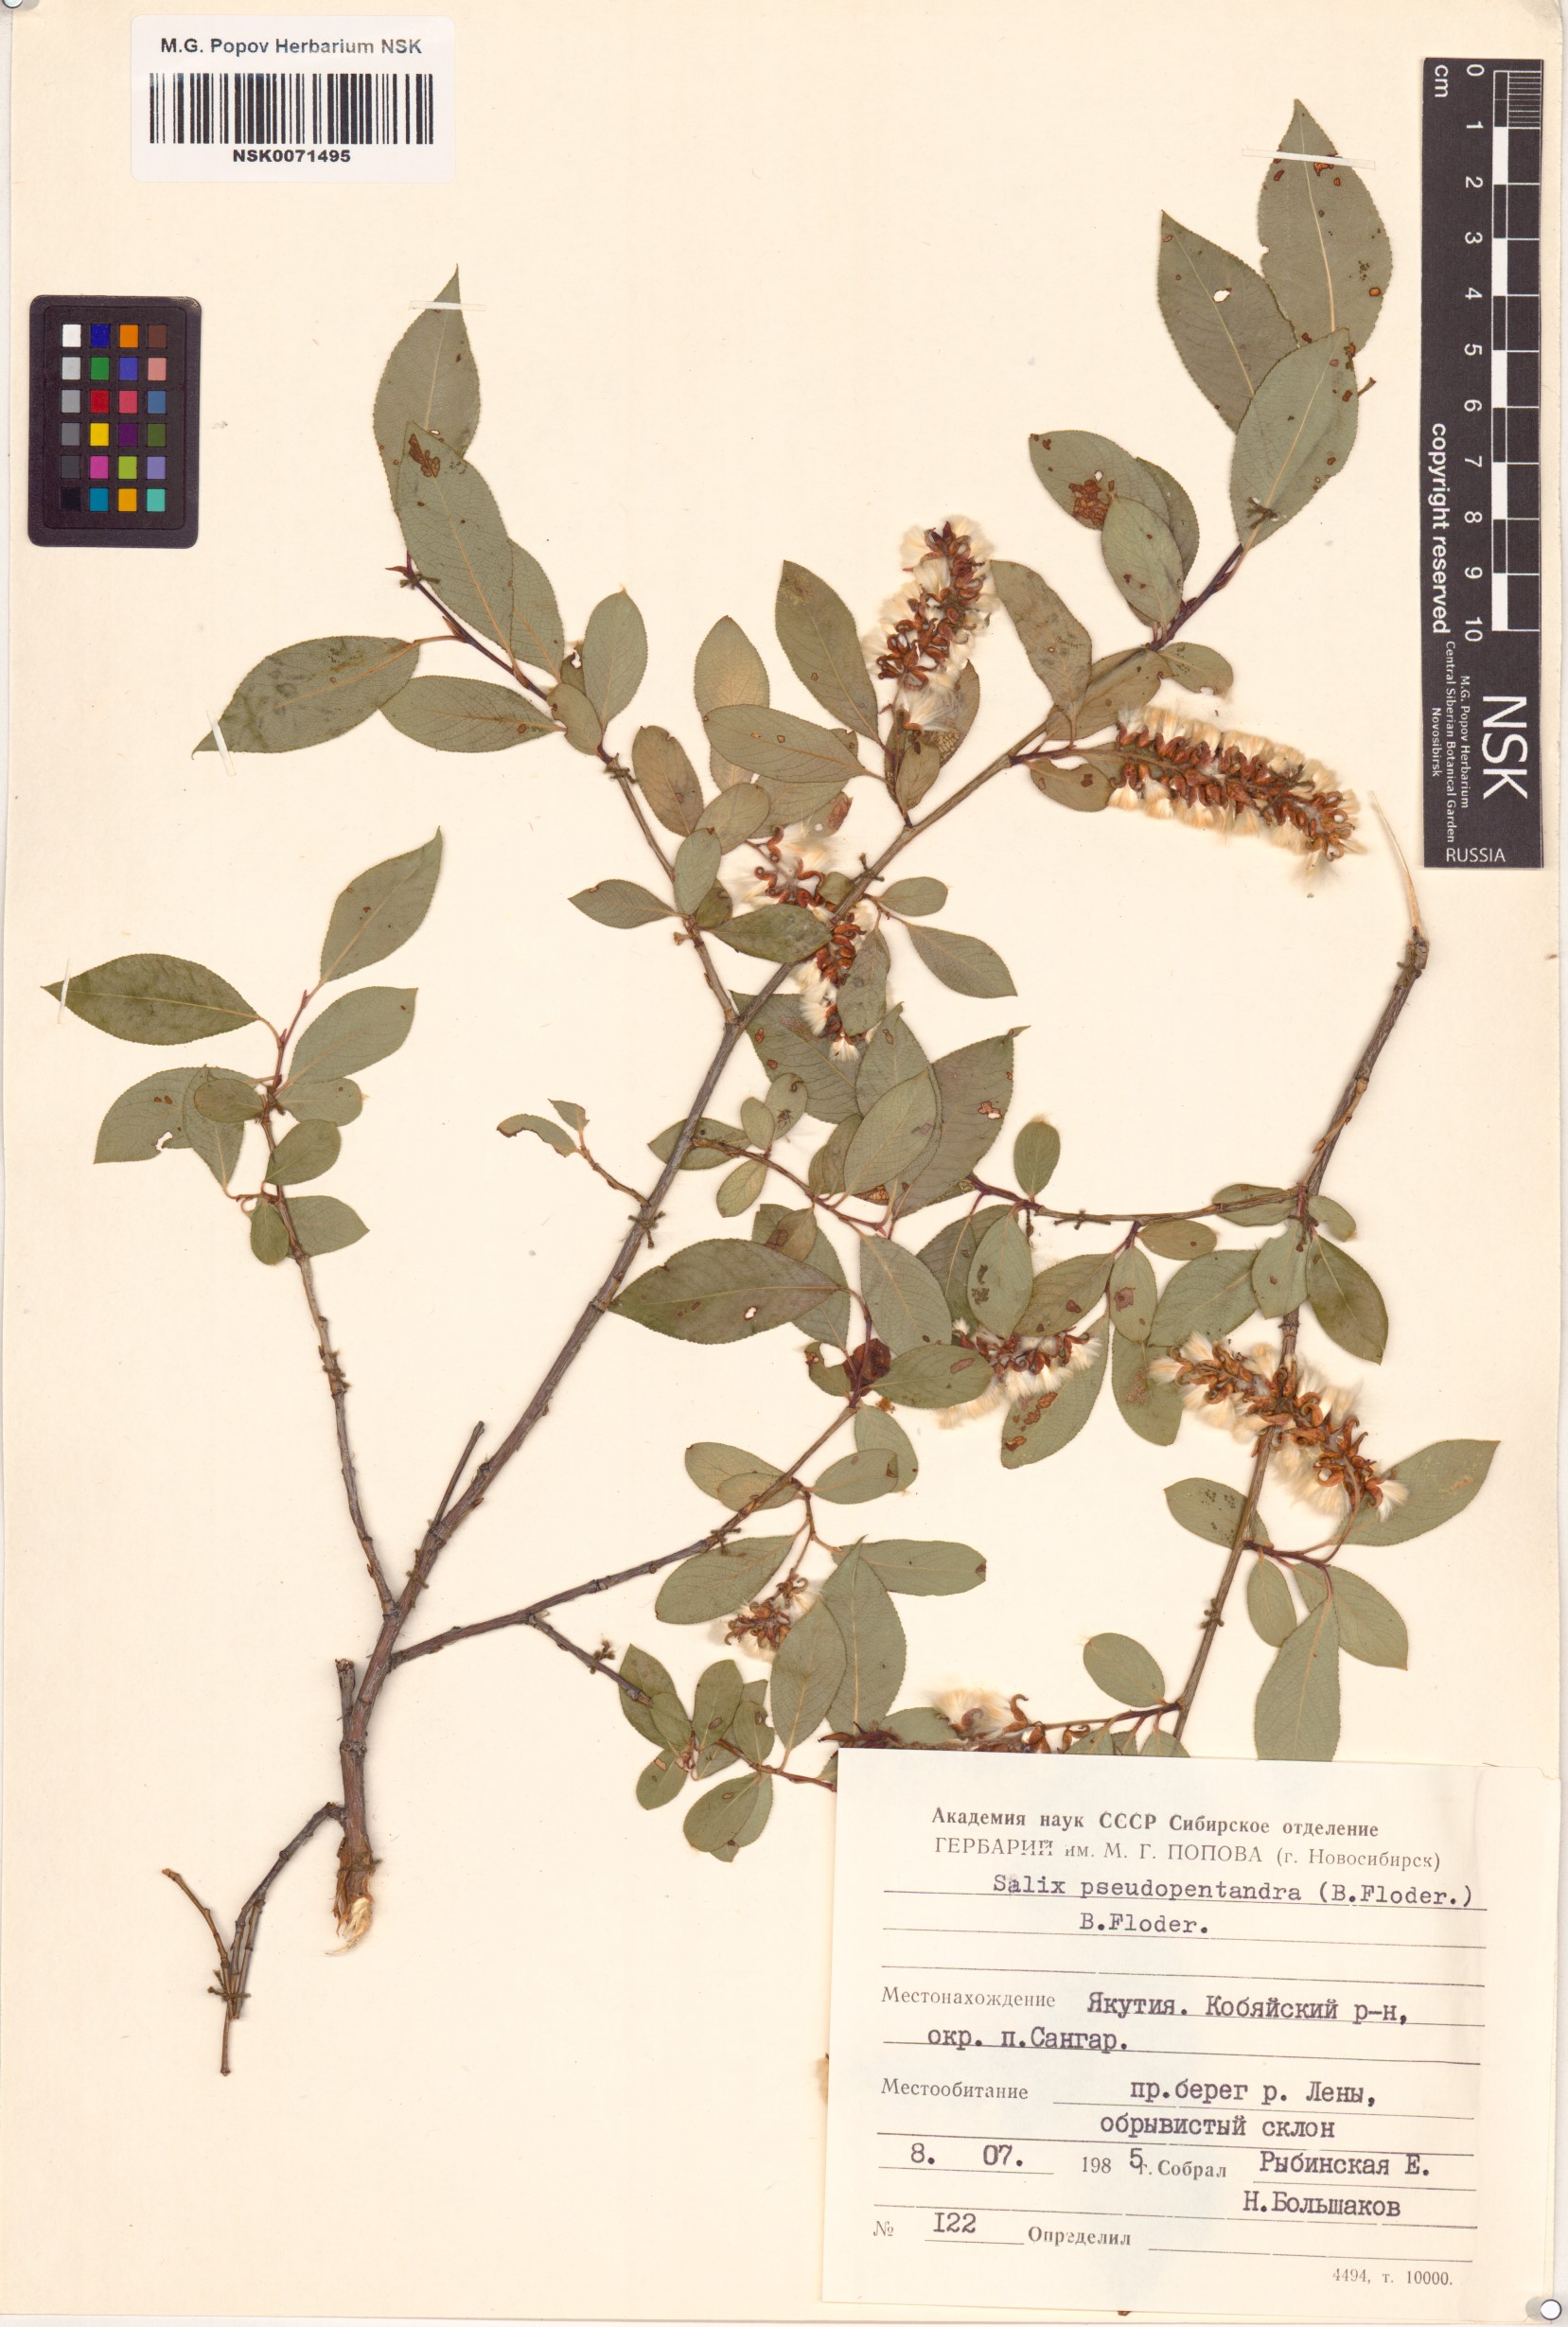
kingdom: Plantae
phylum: Tracheophyta
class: Magnoliopsida
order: Malpighiales
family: Salicaceae
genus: Salix
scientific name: Salix pseudopentandra
